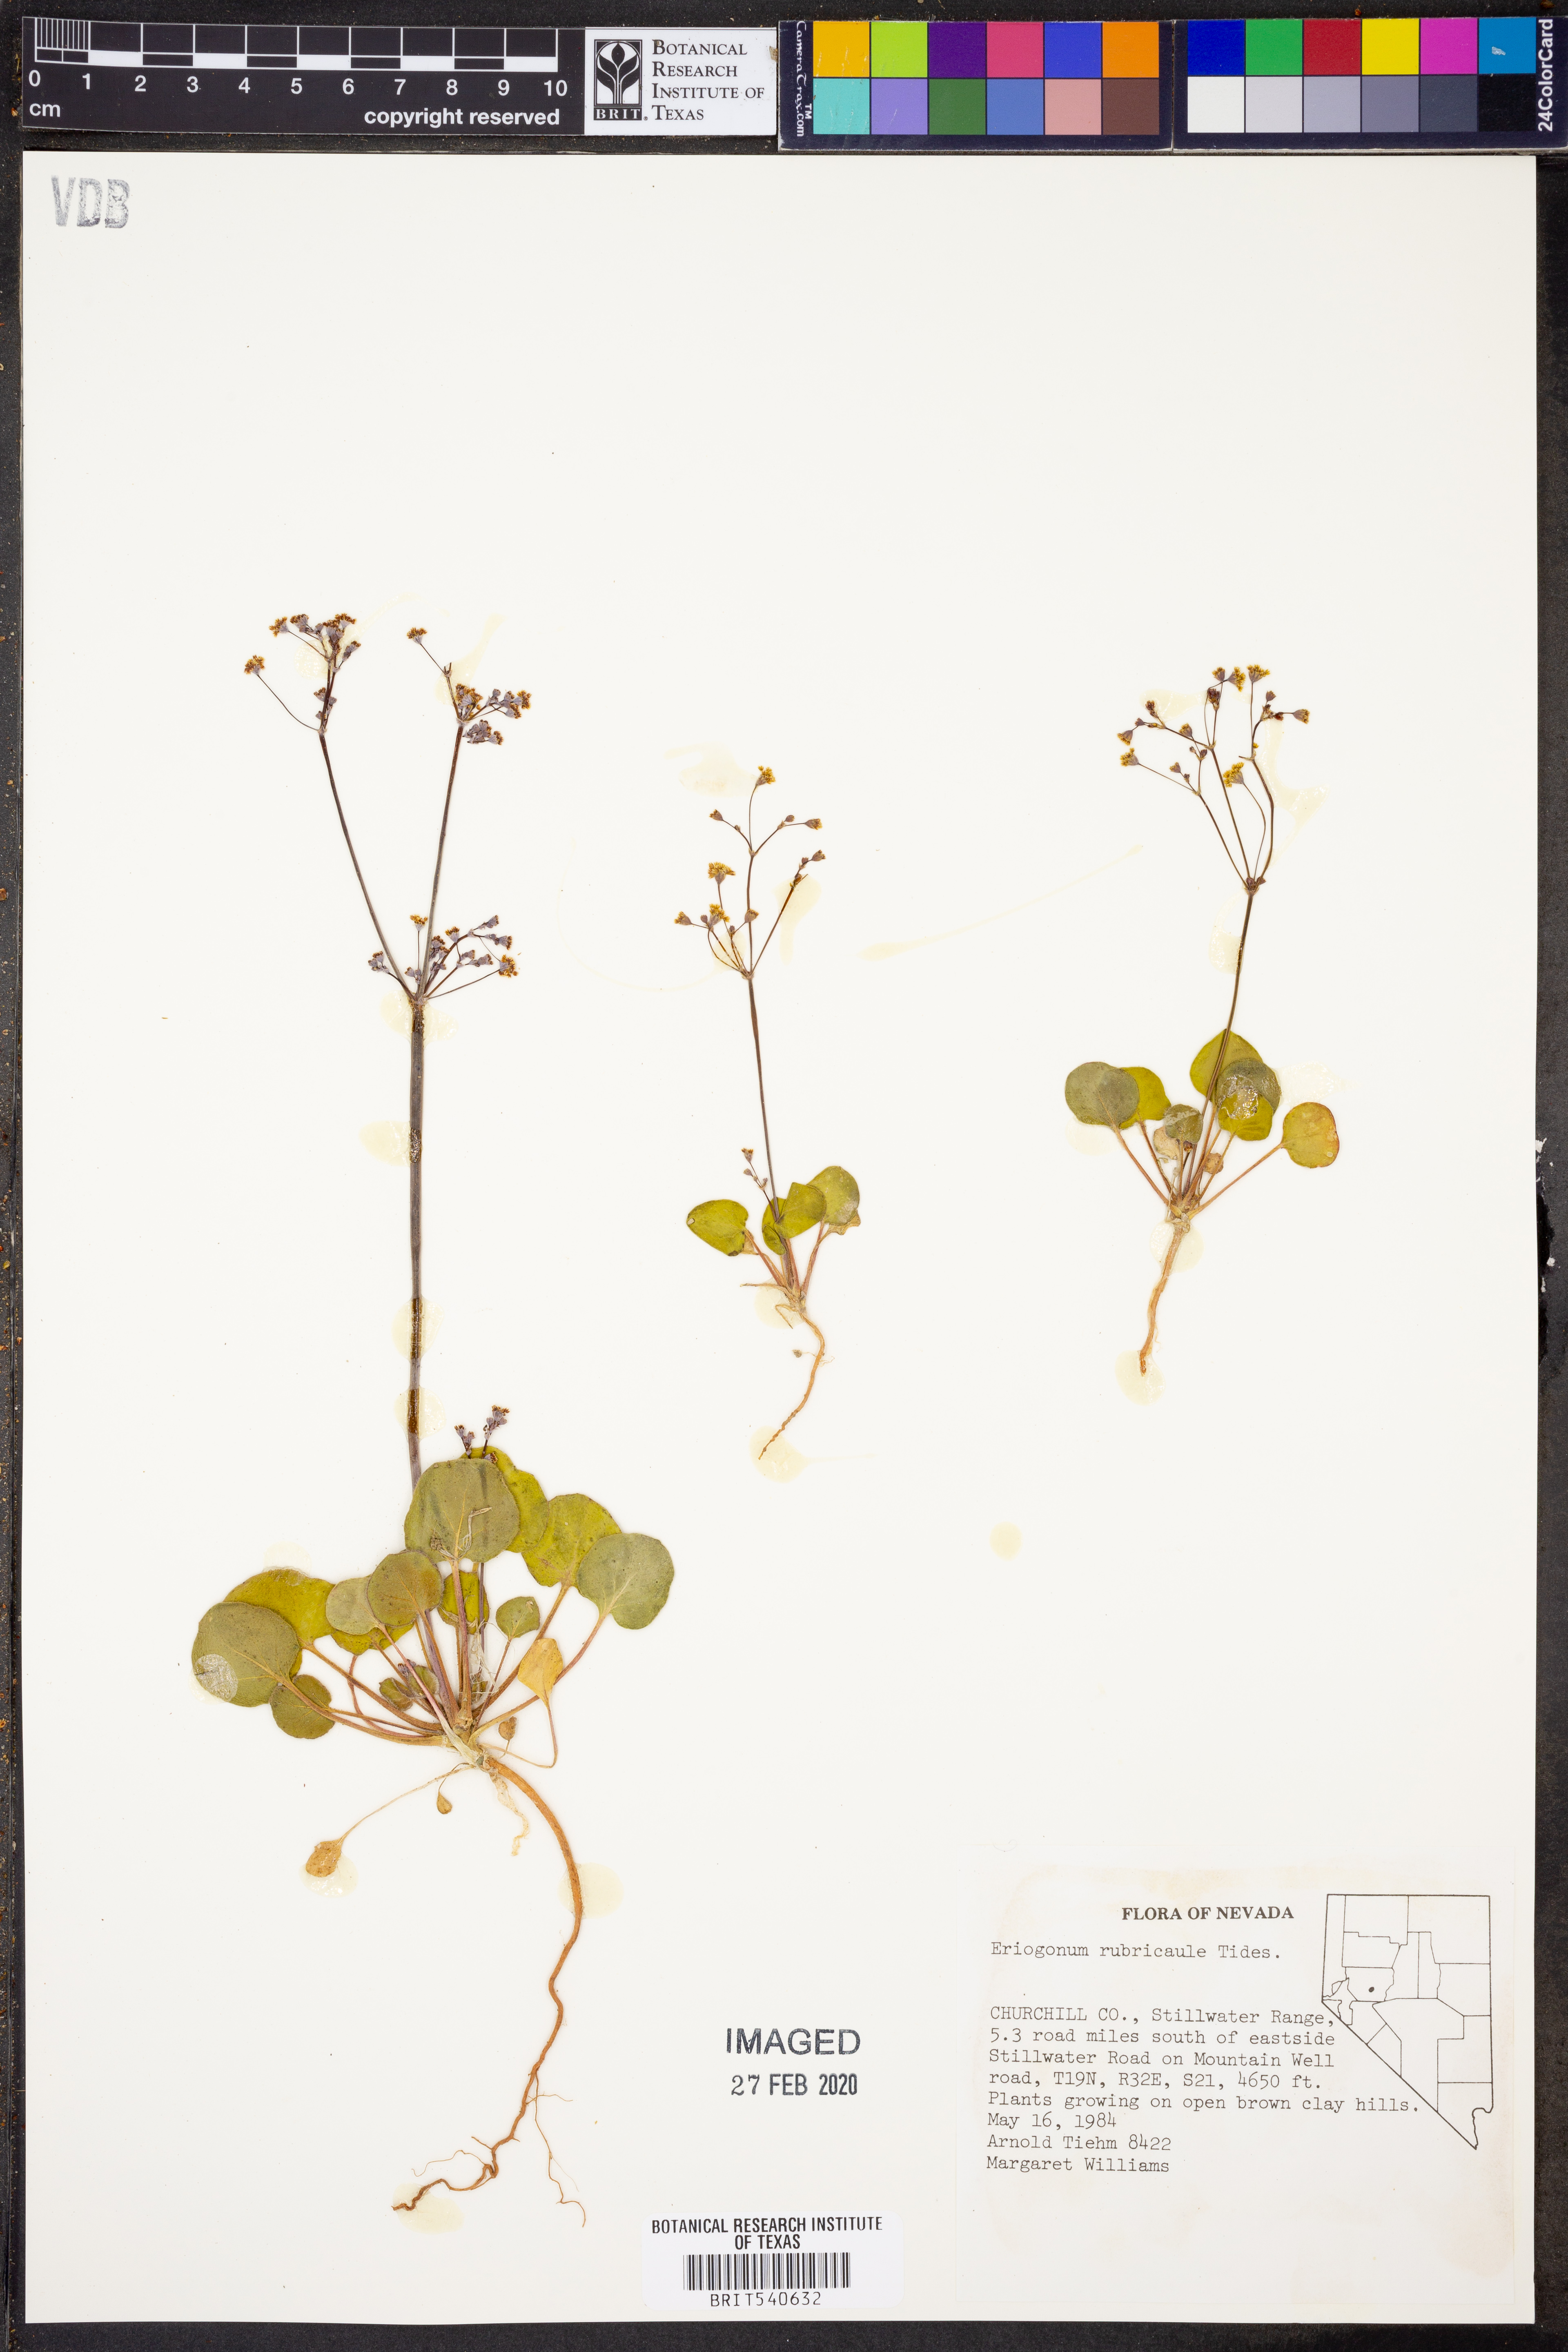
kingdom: Plantae
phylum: Tracheophyta
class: Magnoliopsida
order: Caryophyllales
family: Polygonaceae
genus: Eriogonum
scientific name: Eriogonum rubricaule
